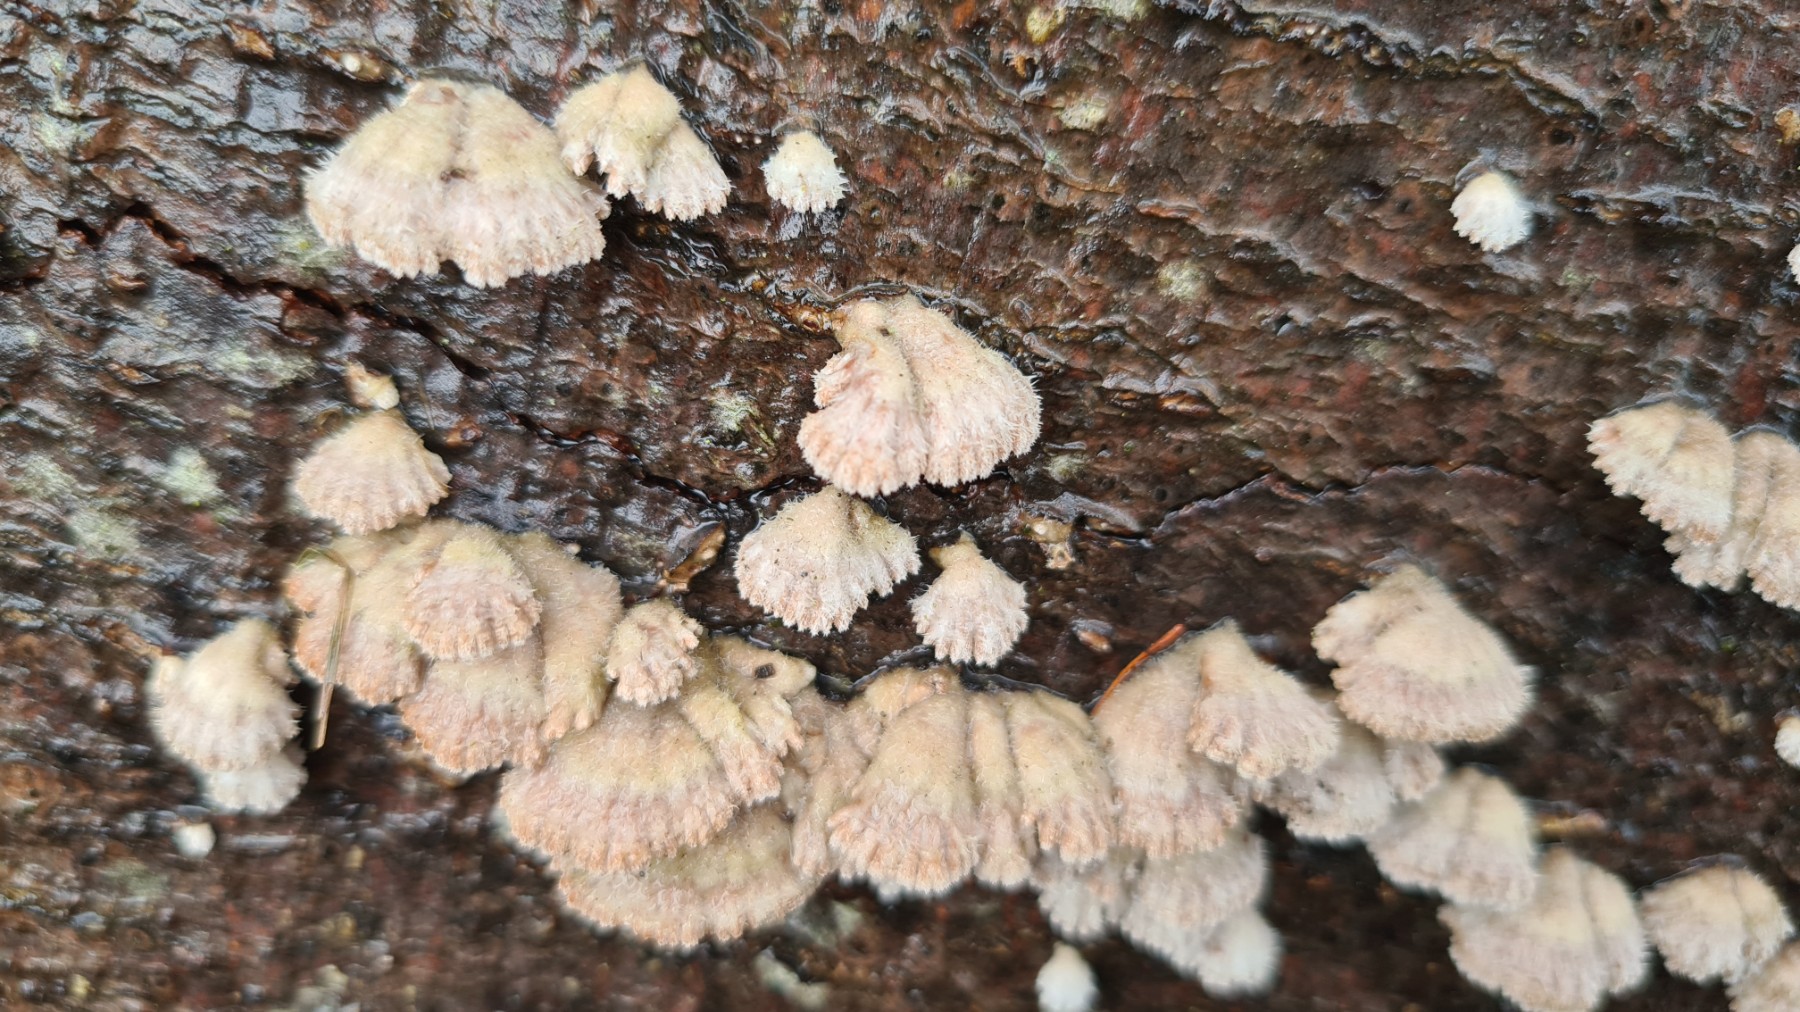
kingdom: Fungi
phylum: Basidiomycota
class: Agaricomycetes
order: Agaricales
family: Schizophyllaceae
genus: Schizophyllum
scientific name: Schizophyllum commune
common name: kløvblad
